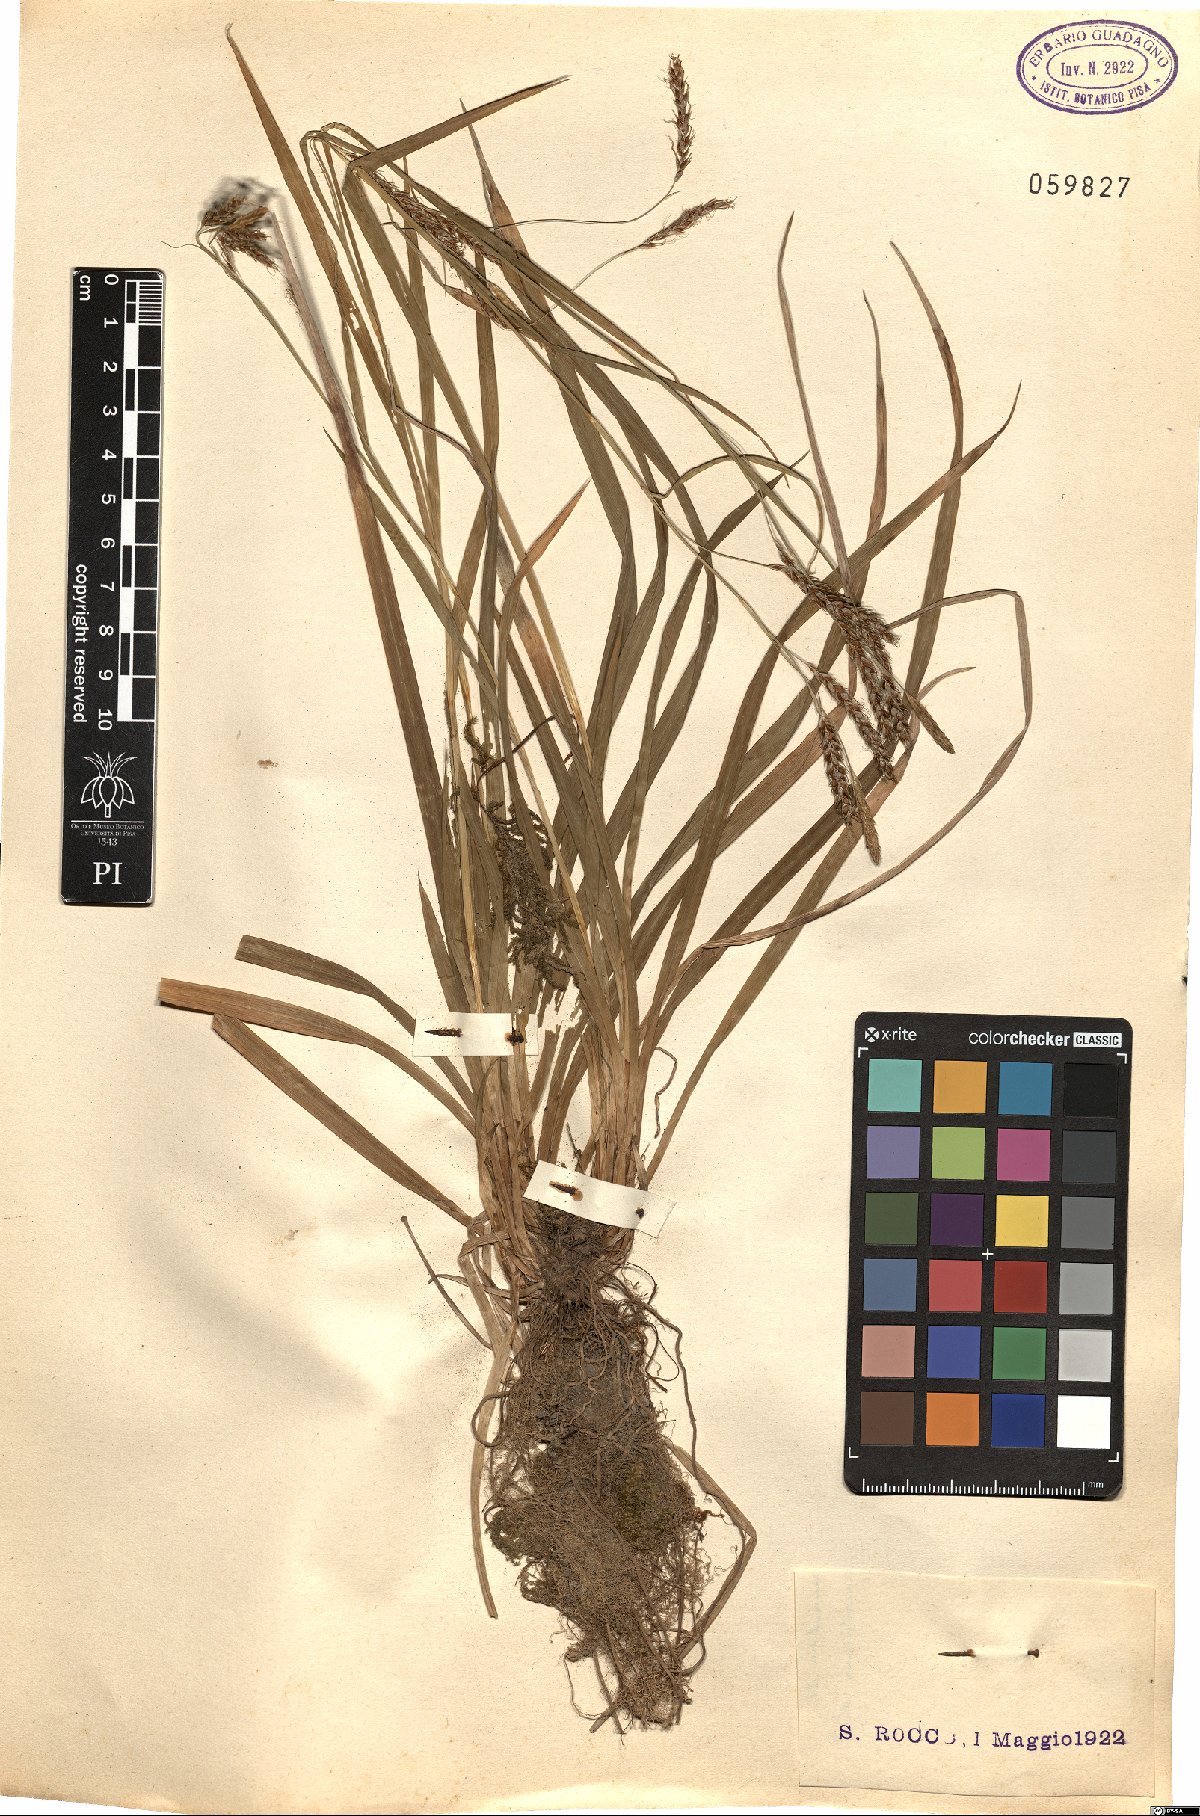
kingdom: Plantae
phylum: Tracheophyta
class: Liliopsida
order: Poales
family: Cyperaceae
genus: Carex
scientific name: Carex
